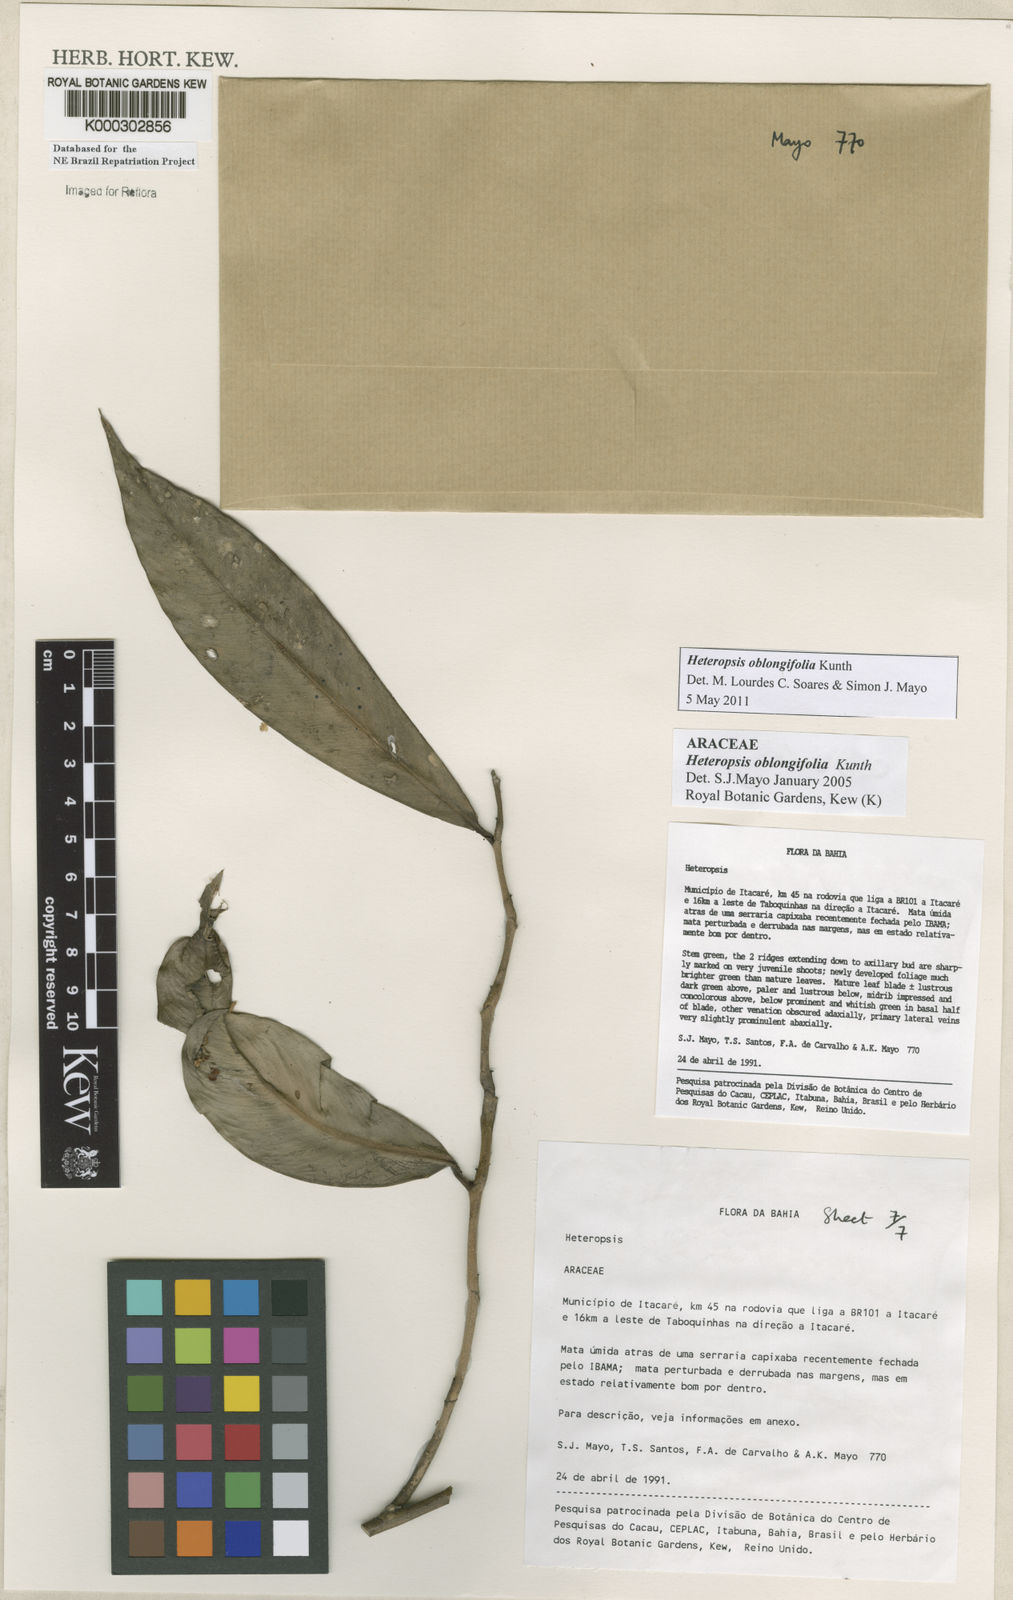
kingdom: Plantae
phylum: Tracheophyta
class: Liliopsida
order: Alismatales
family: Araceae
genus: Heteropsis
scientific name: Heteropsis oblongifolia
